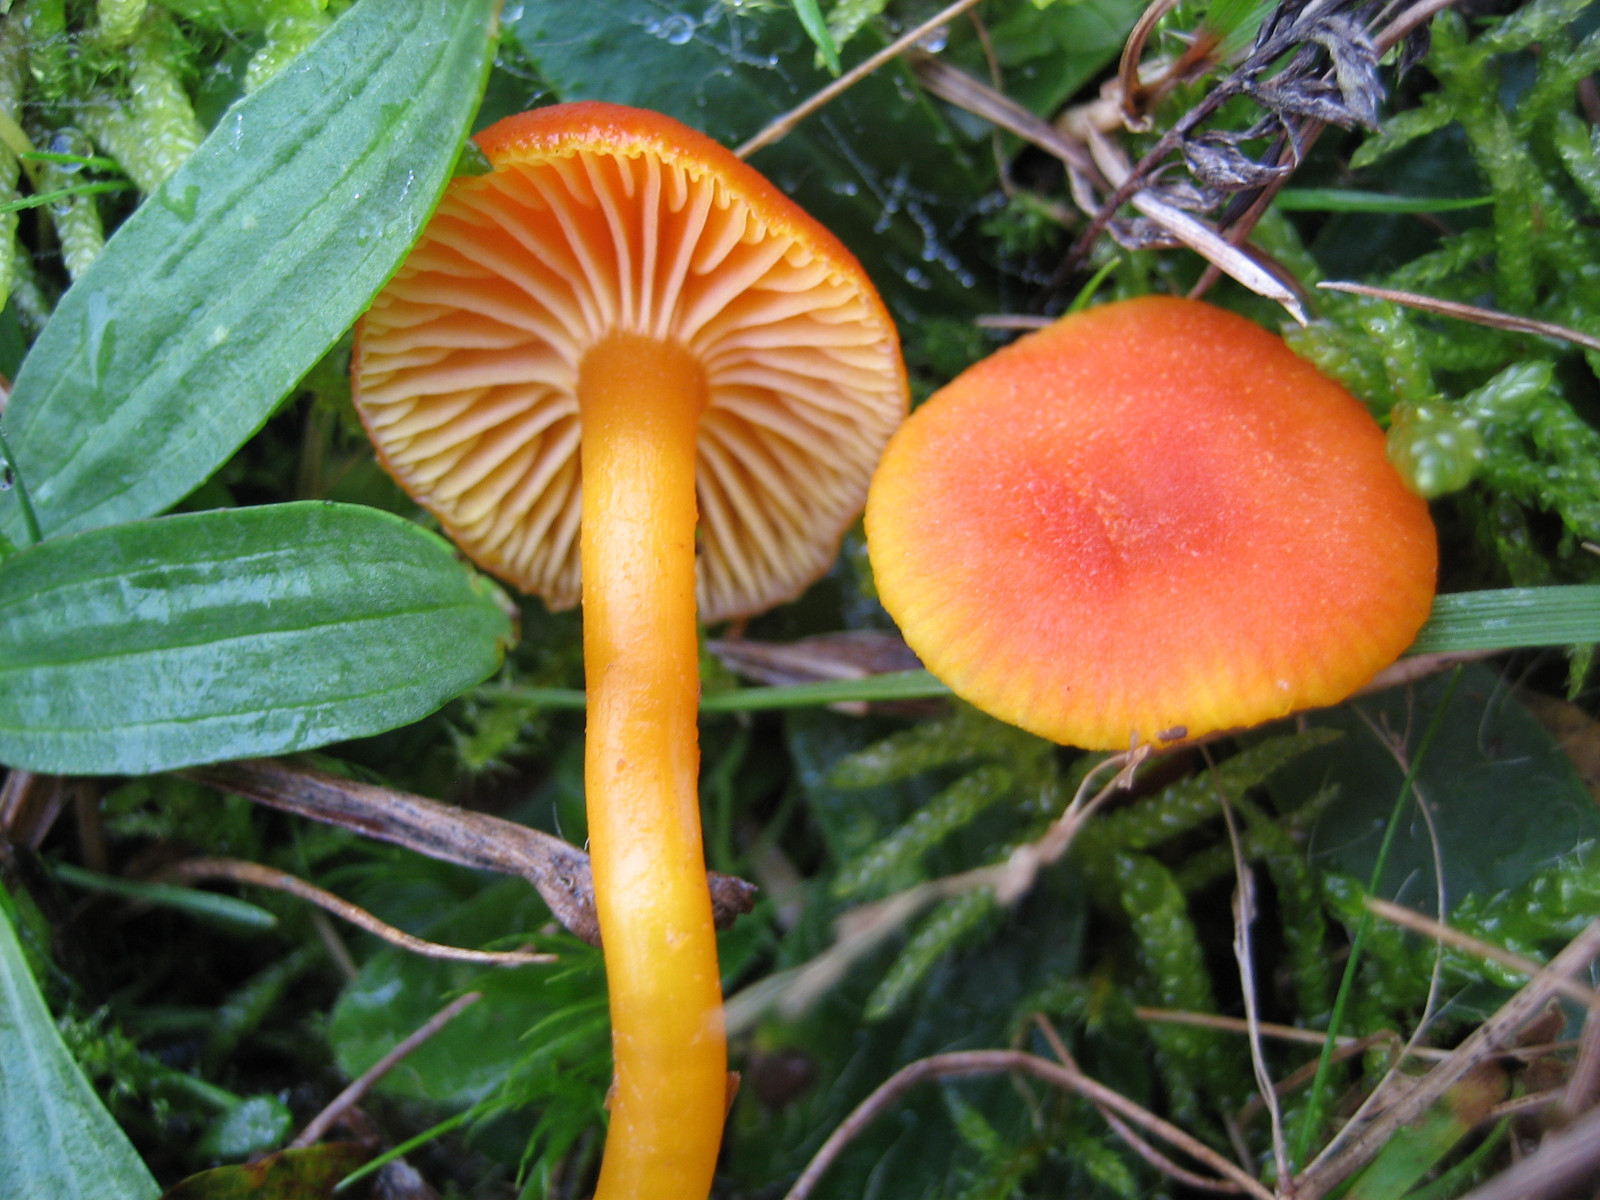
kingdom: Fungi
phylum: Basidiomycota
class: Agaricomycetes
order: Agaricales
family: Hygrophoraceae
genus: Hygrocybe
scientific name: Hygrocybe miniata
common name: mønje-vokshat
